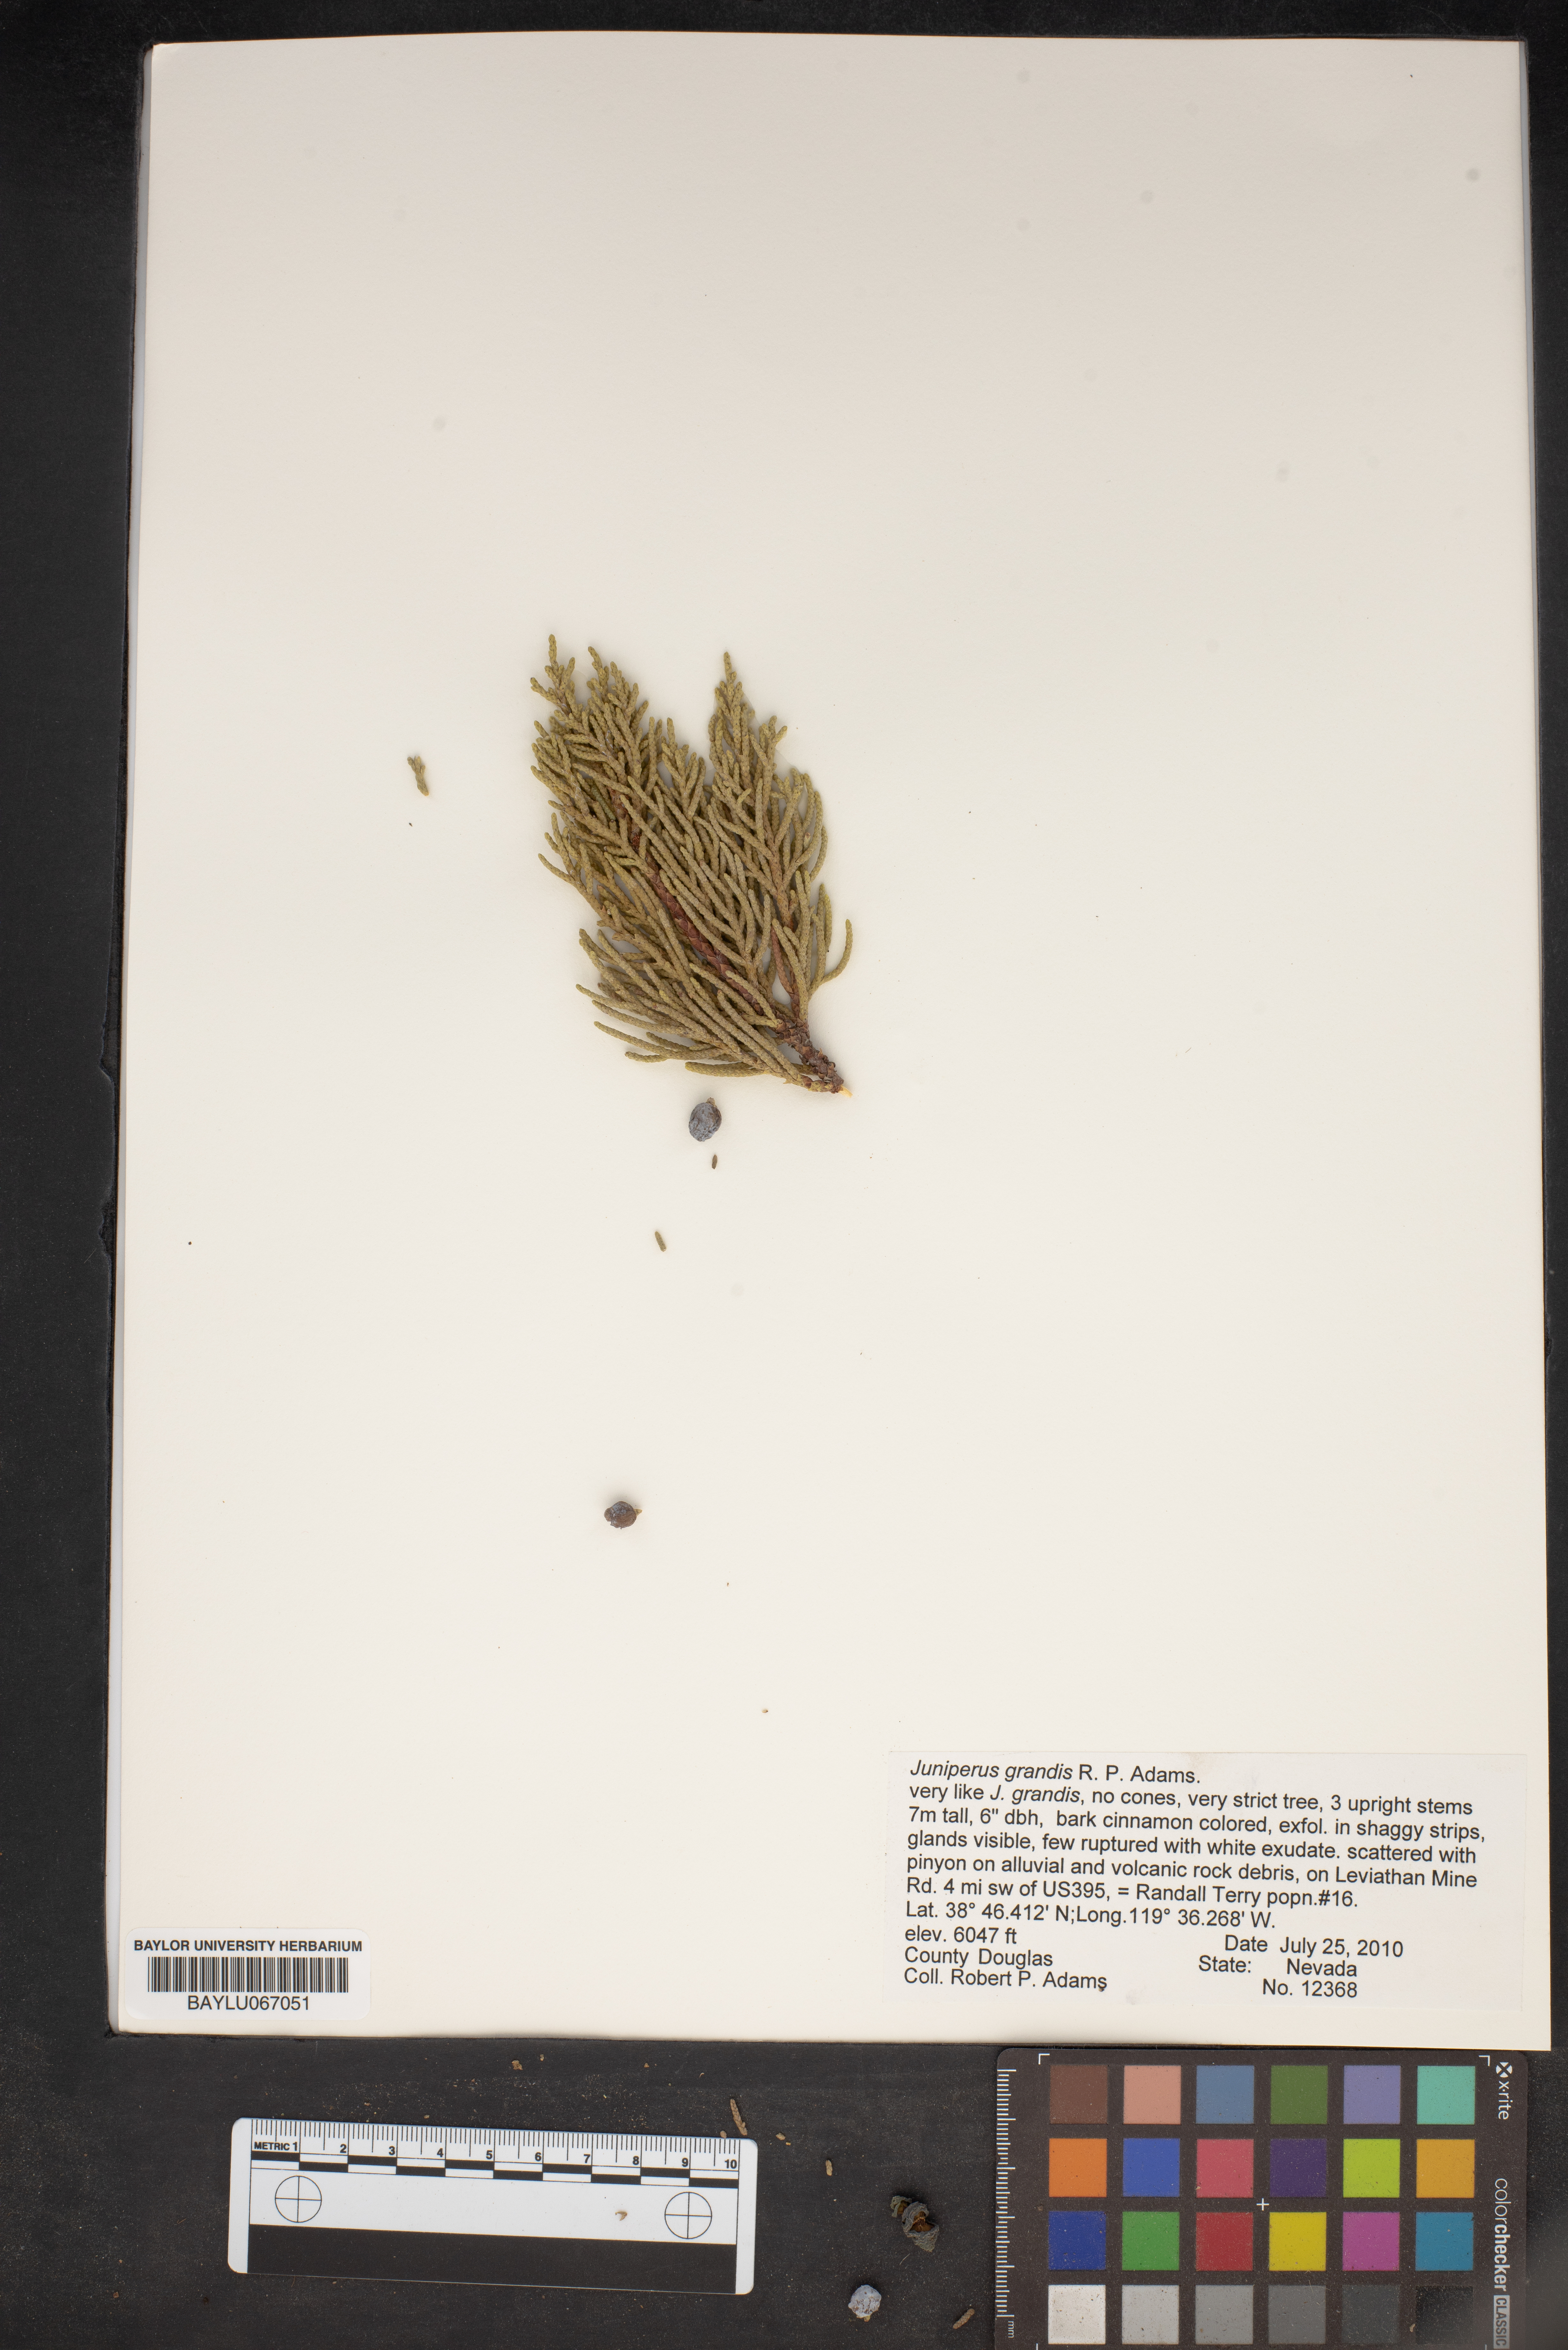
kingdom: Plantae
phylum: Tracheophyta
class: Pinopsida
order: Pinales
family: Cupressaceae
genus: Juniperus
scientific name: Juniperus occidentalis
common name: Western juniper
